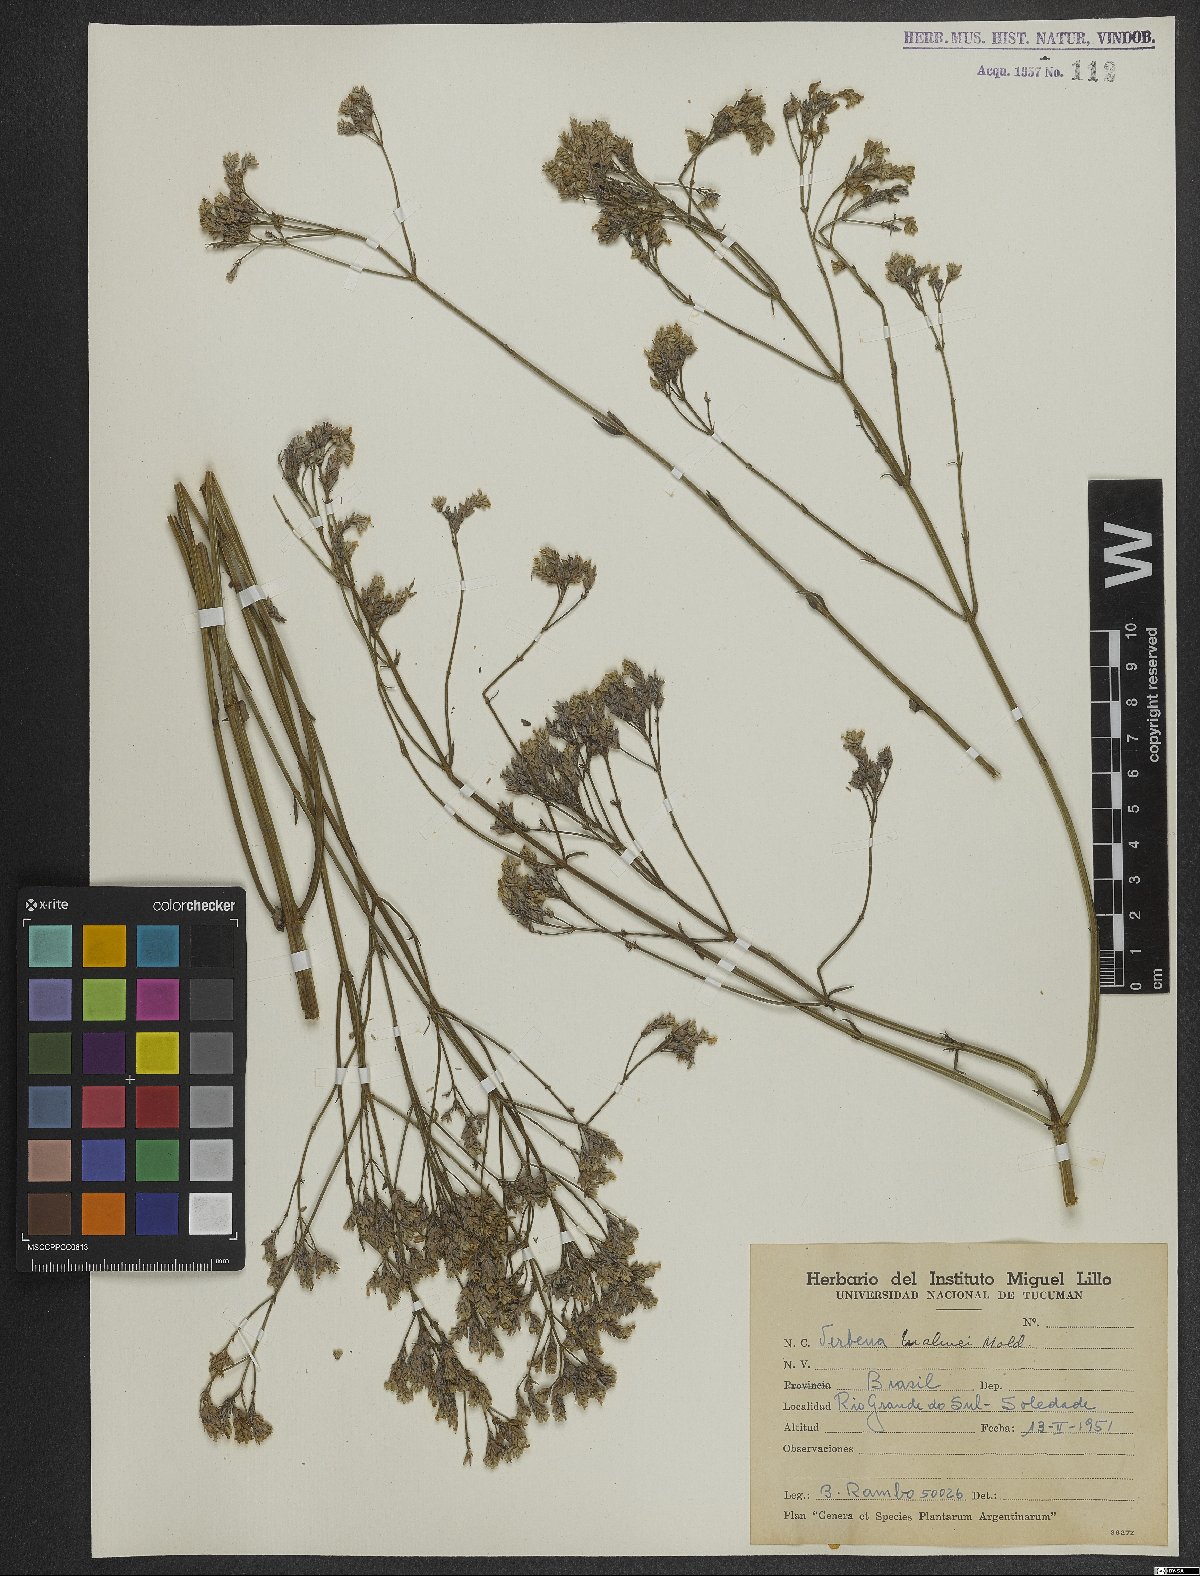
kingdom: Plantae
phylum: Tracheophyta
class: Magnoliopsida
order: Lamiales
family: Verbenaceae
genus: Verbena
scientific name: Verbena malmii
